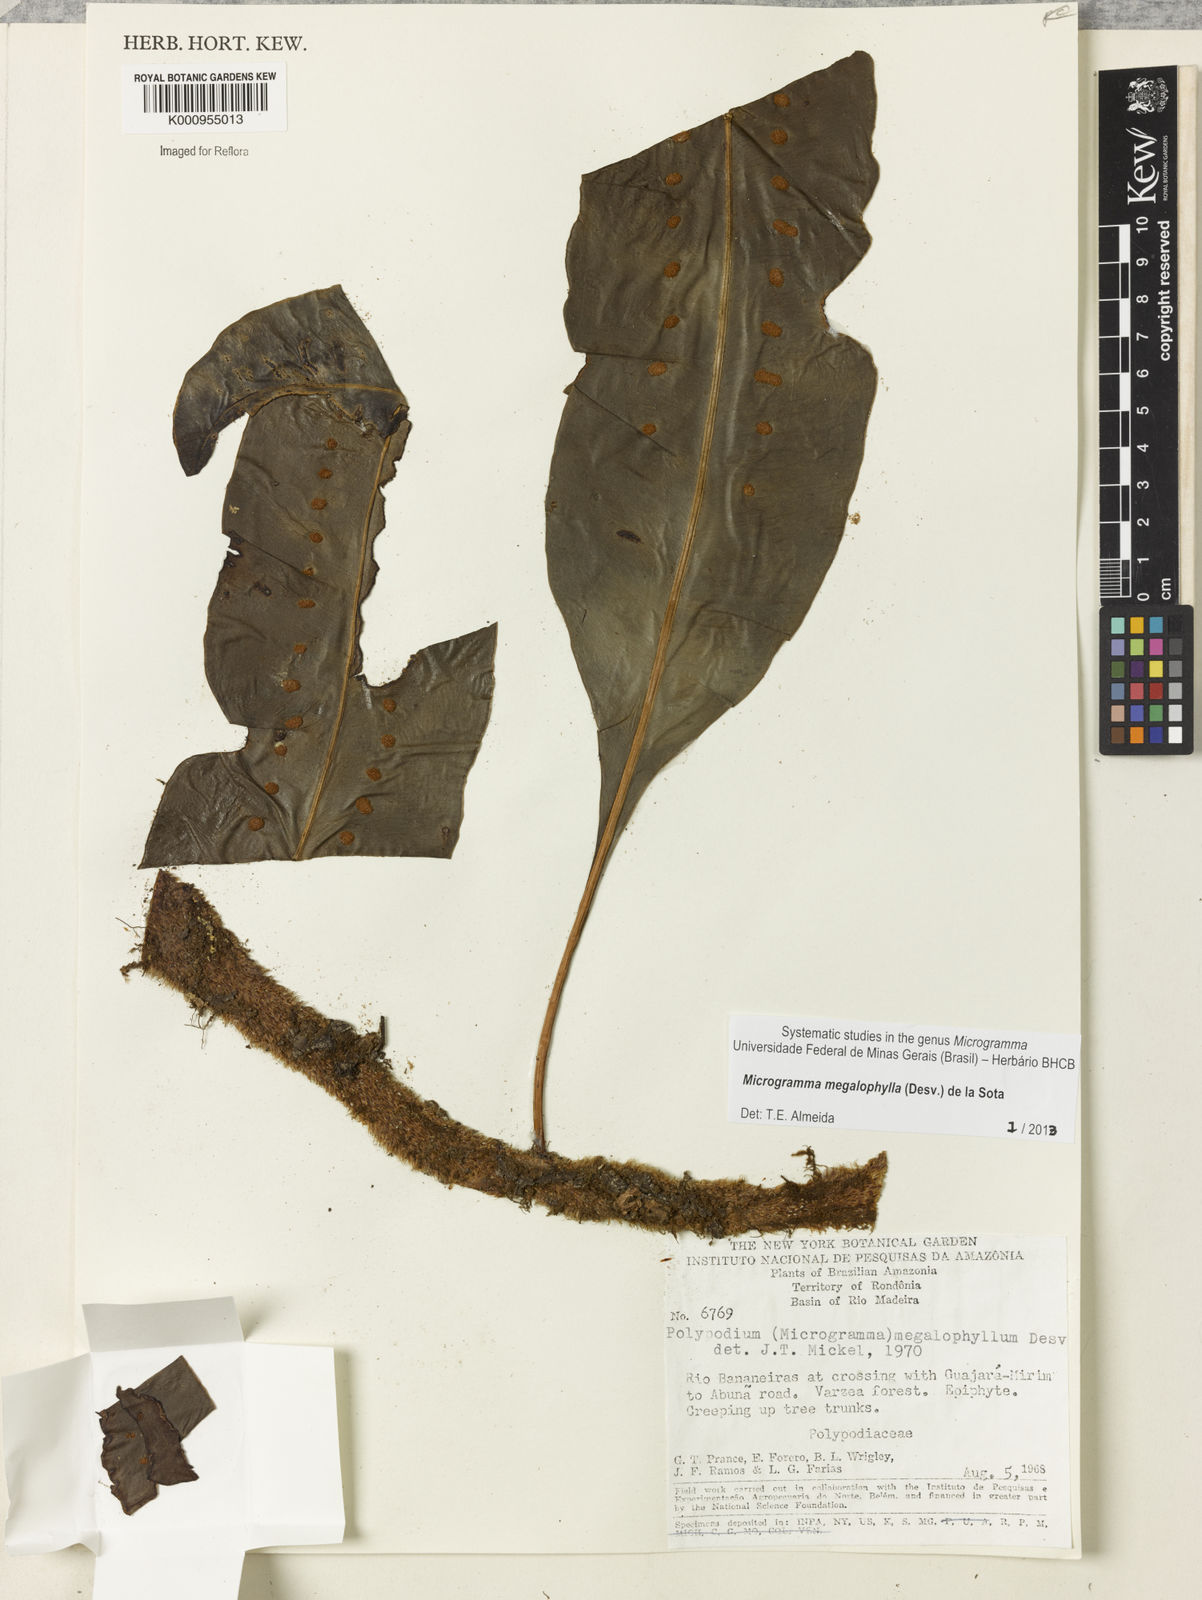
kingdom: Plantae
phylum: Tracheophyta
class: Polypodiopsida
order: Polypodiales
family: Polypodiaceae
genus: Microgramma
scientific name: Microgramma megalophylla
